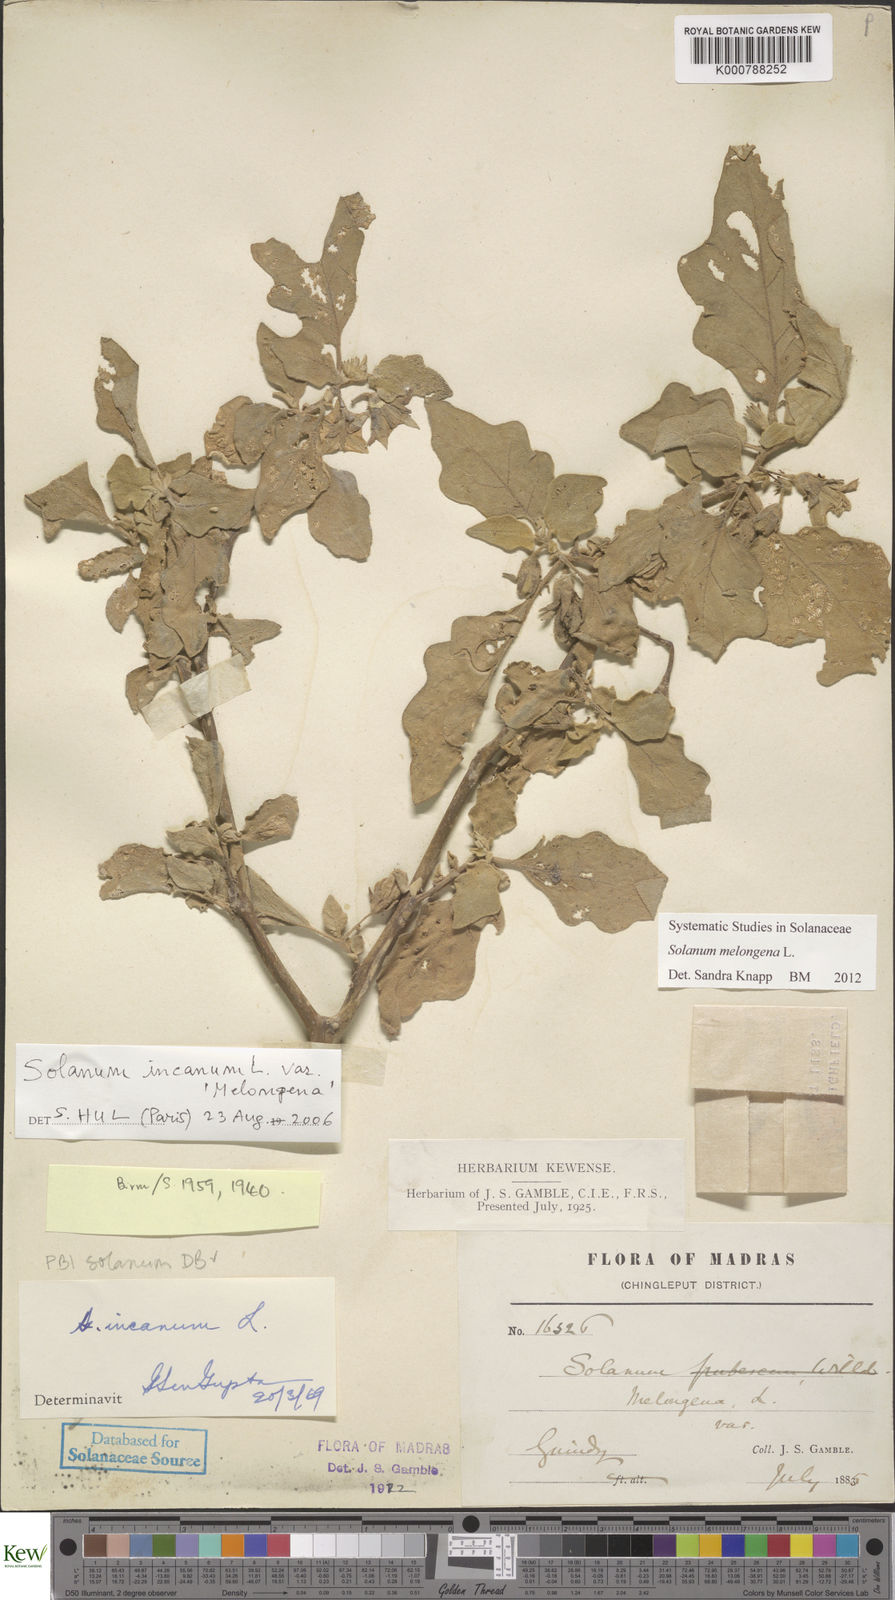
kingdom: Plantae
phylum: Tracheophyta
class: Magnoliopsida
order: Solanales
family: Solanaceae
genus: Solanum
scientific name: Solanum melongena
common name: Eggplant
